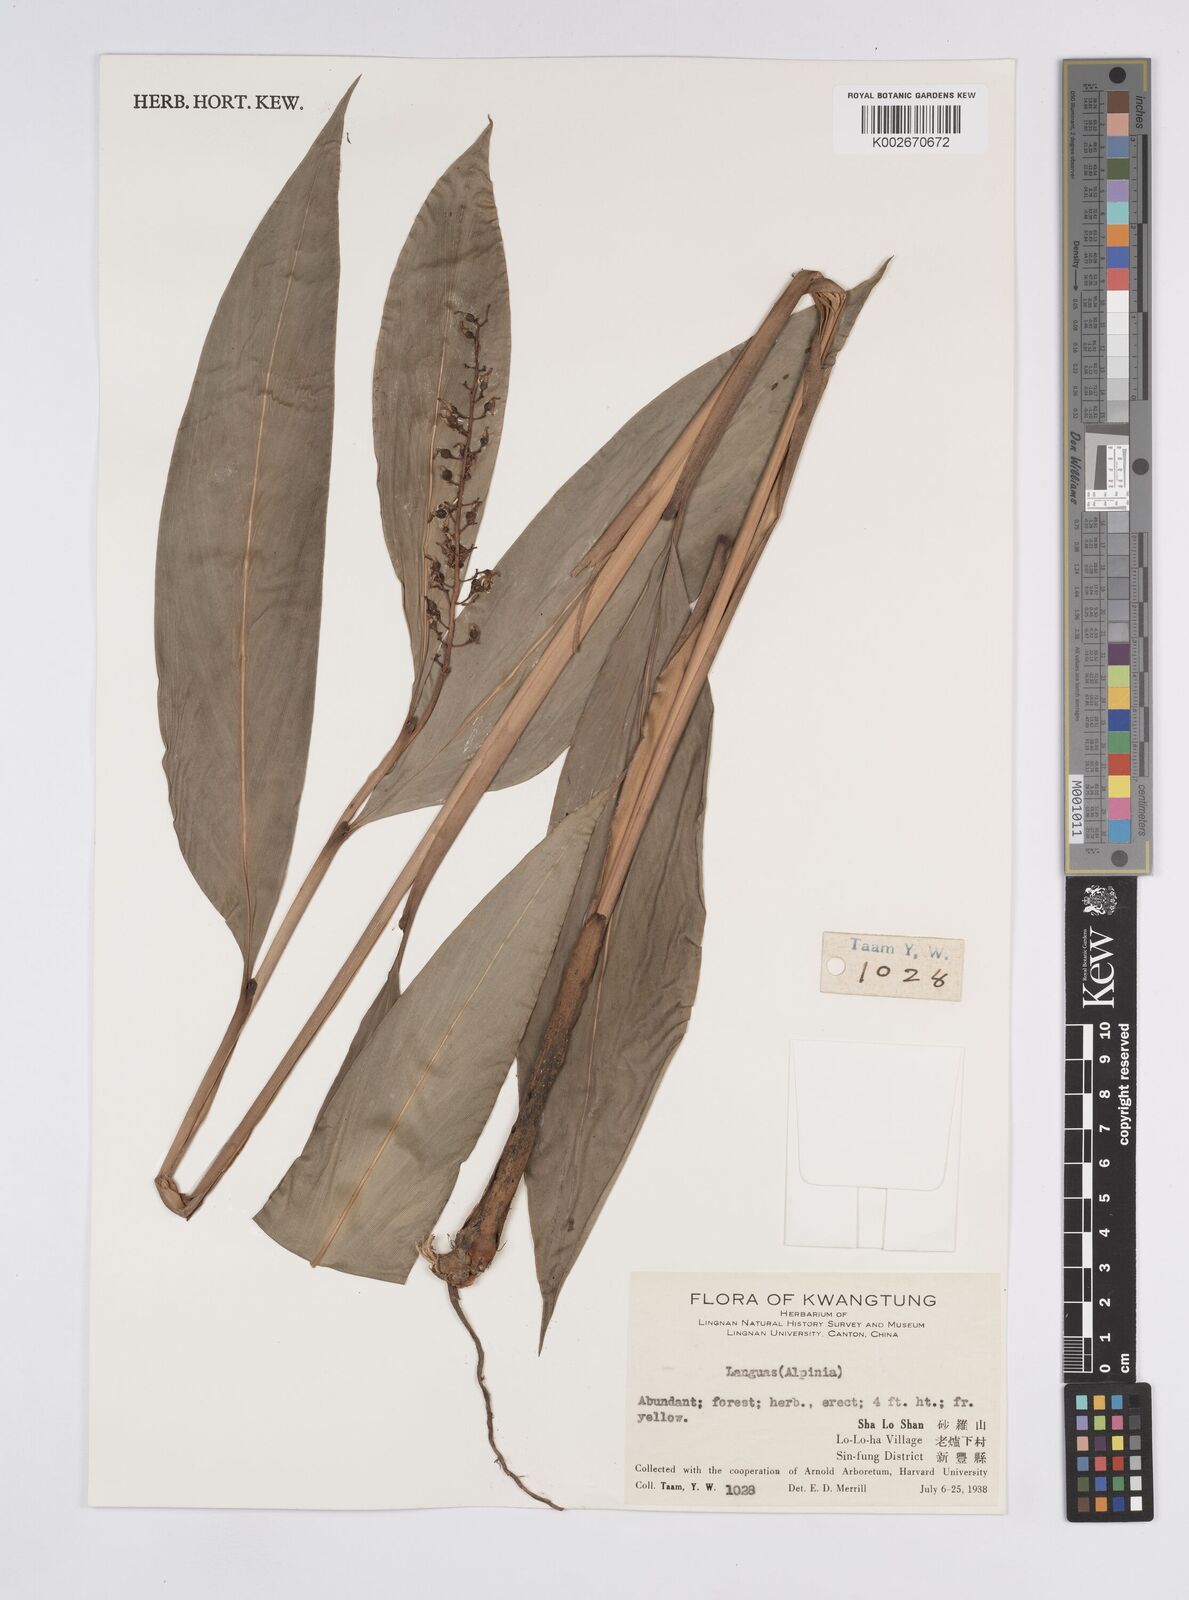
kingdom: Plantae
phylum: Tracheophyta
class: Liliopsida
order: Zingiberales
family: Zingiberaceae
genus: Alpinia
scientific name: Alpinia manii
